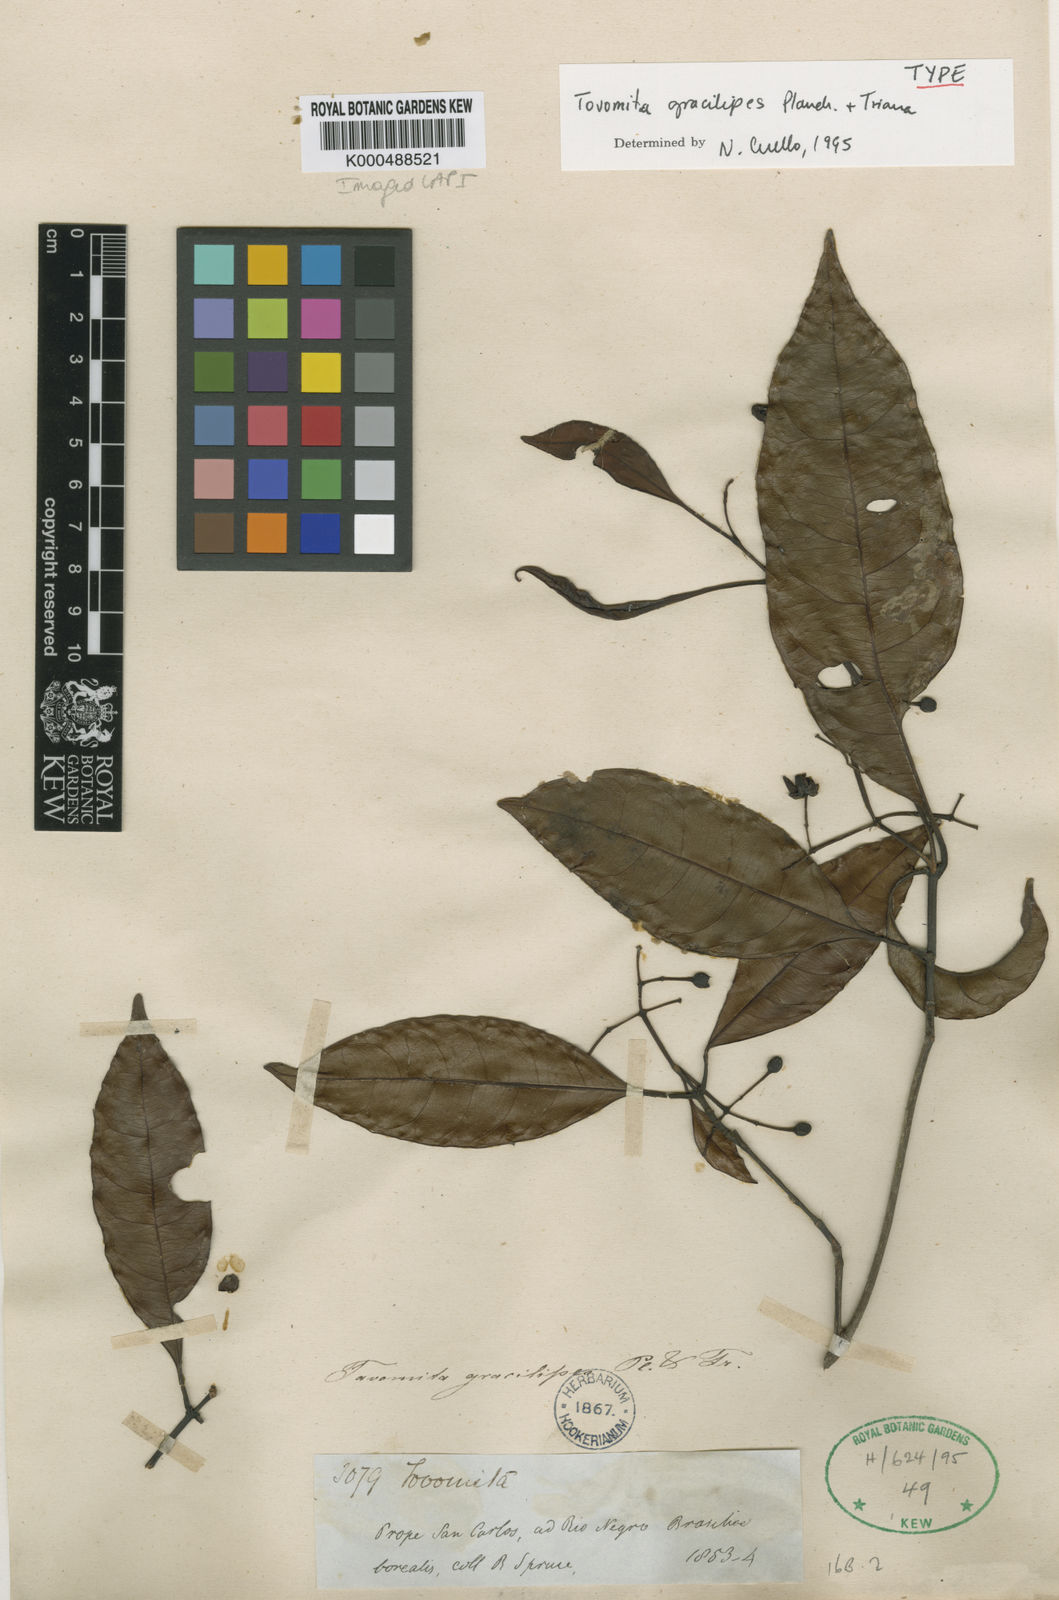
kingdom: Plantae
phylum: Tracheophyta
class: Magnoliopsida
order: Malpighiales
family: Clusiaceae
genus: Tovomita
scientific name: Tovomita gracilipes
